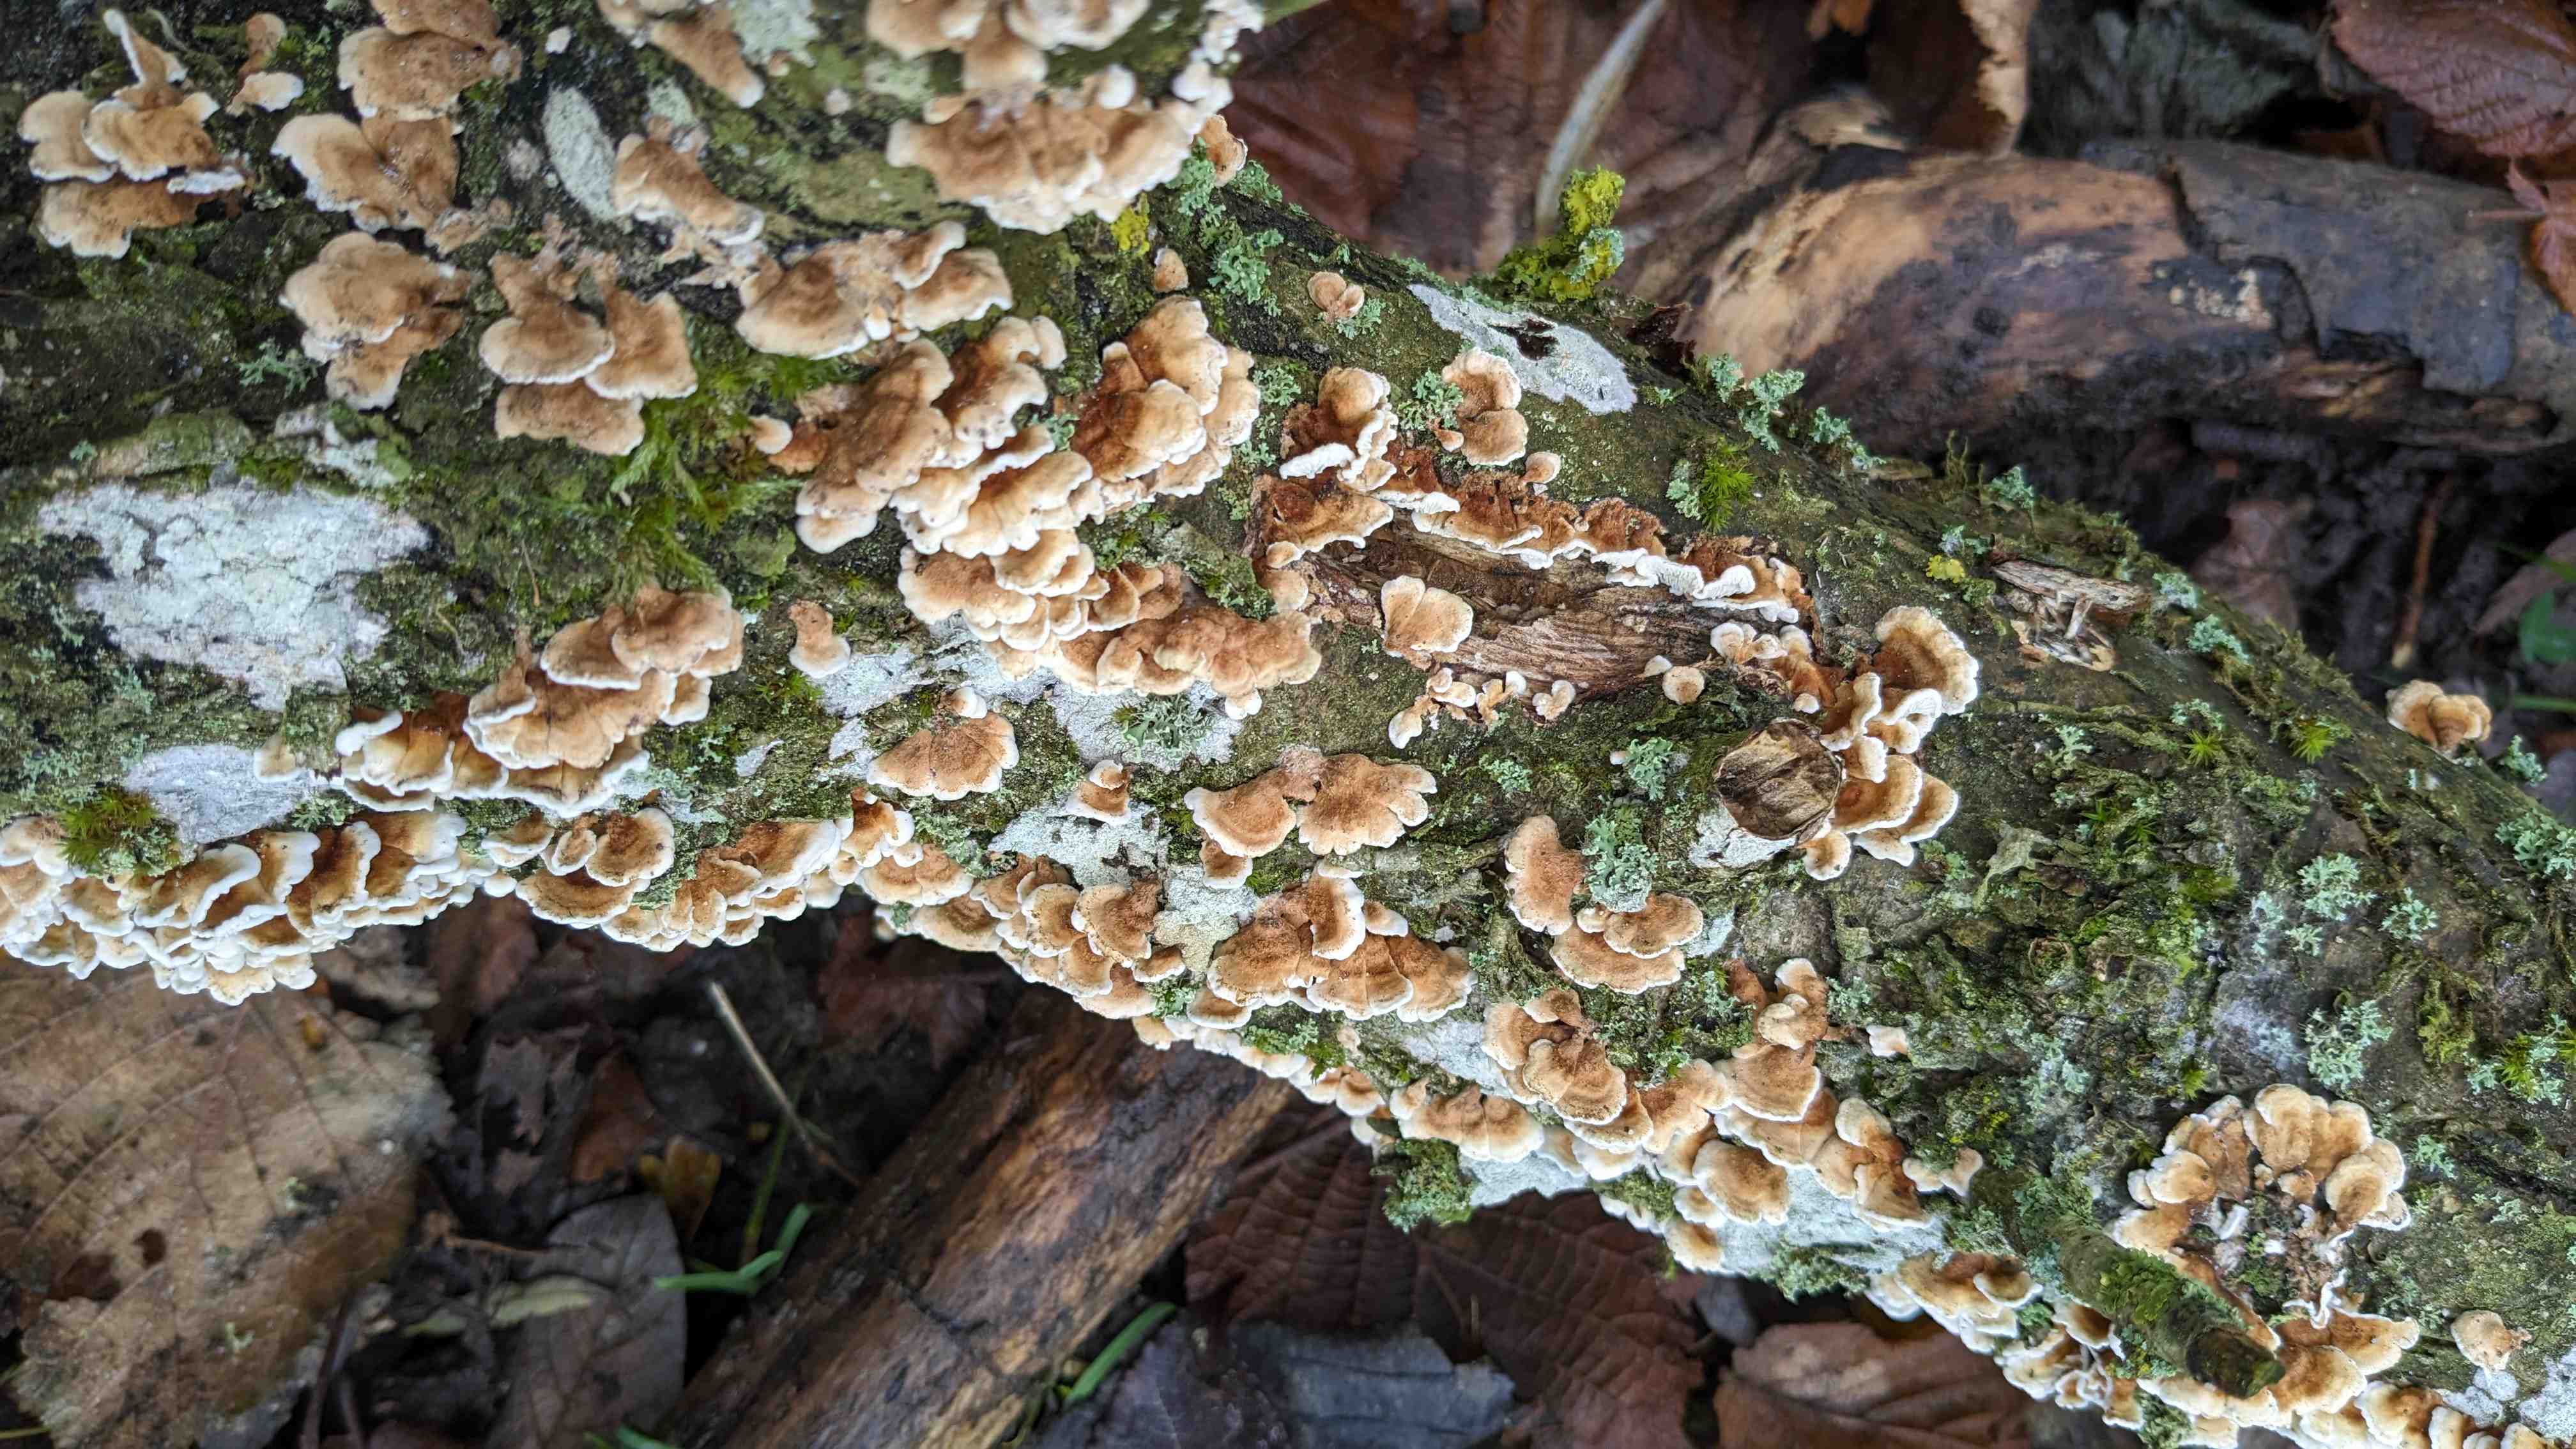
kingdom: Fungi
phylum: Basidiomycota
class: Agaricomycetes
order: Amylocorticiales
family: Amylocorticiaceae
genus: Plicaturopsis
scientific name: Plicaturopsis crispa
